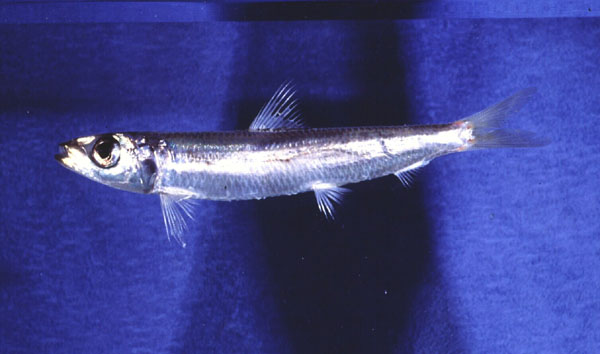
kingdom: Animalia
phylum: Chordata
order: Clupeiformes
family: Dussumieriidae
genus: Etrumeus
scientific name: Etrumeus whiteheadi
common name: Redeye roundherring
